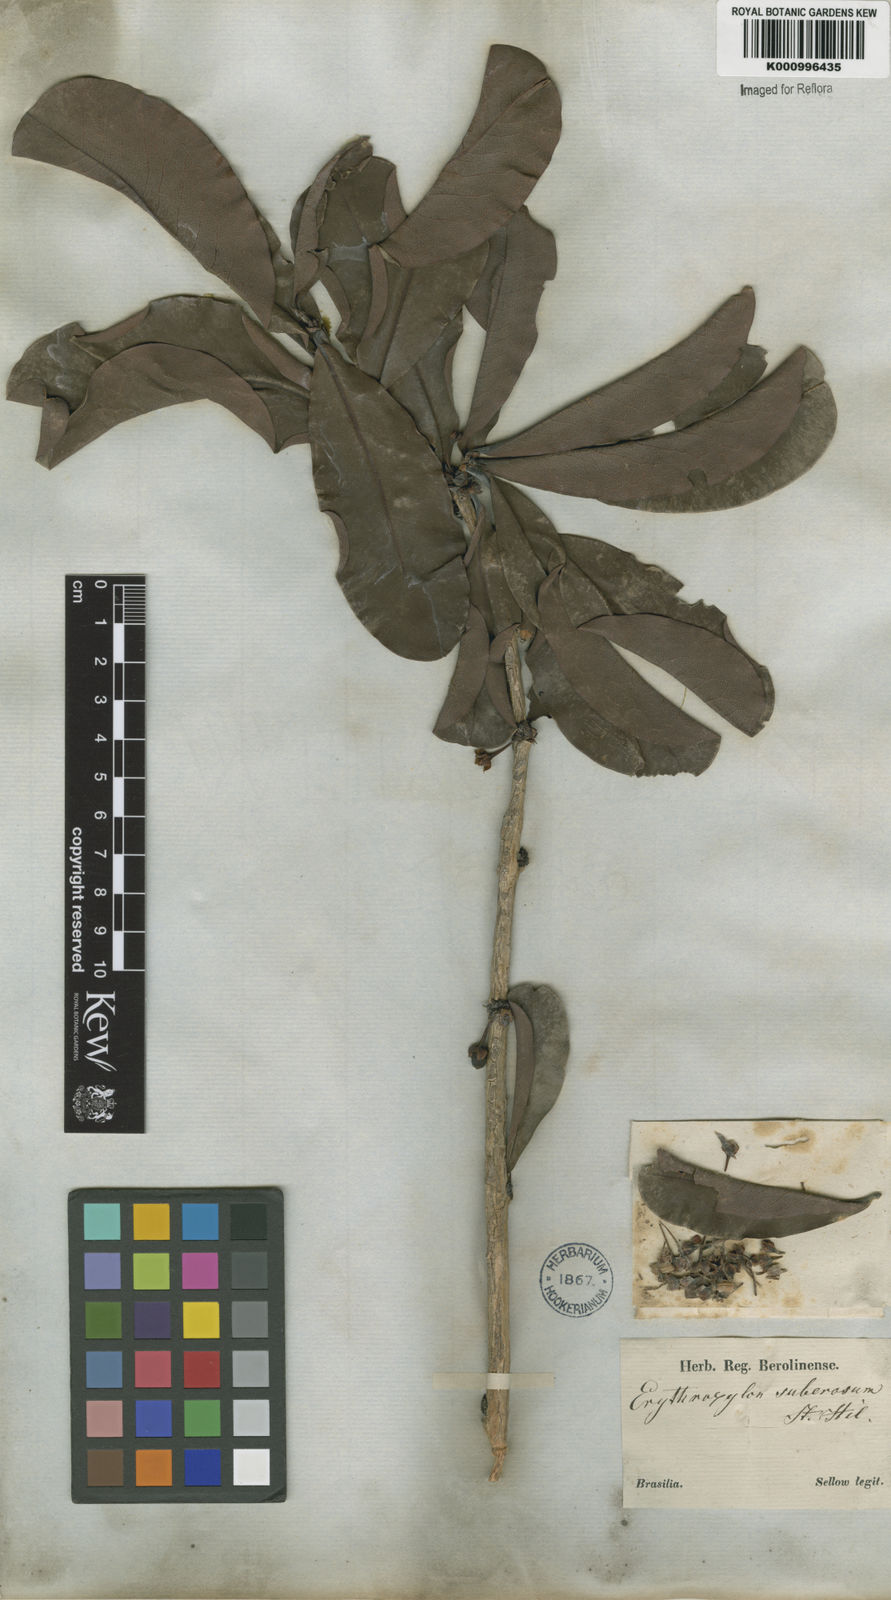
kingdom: Plantae
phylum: Tracheophyta
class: Magnoliopsida
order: Malpighiales
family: Erythroxylaceae
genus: Erythroxylum
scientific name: Erythroxylum suberosum
